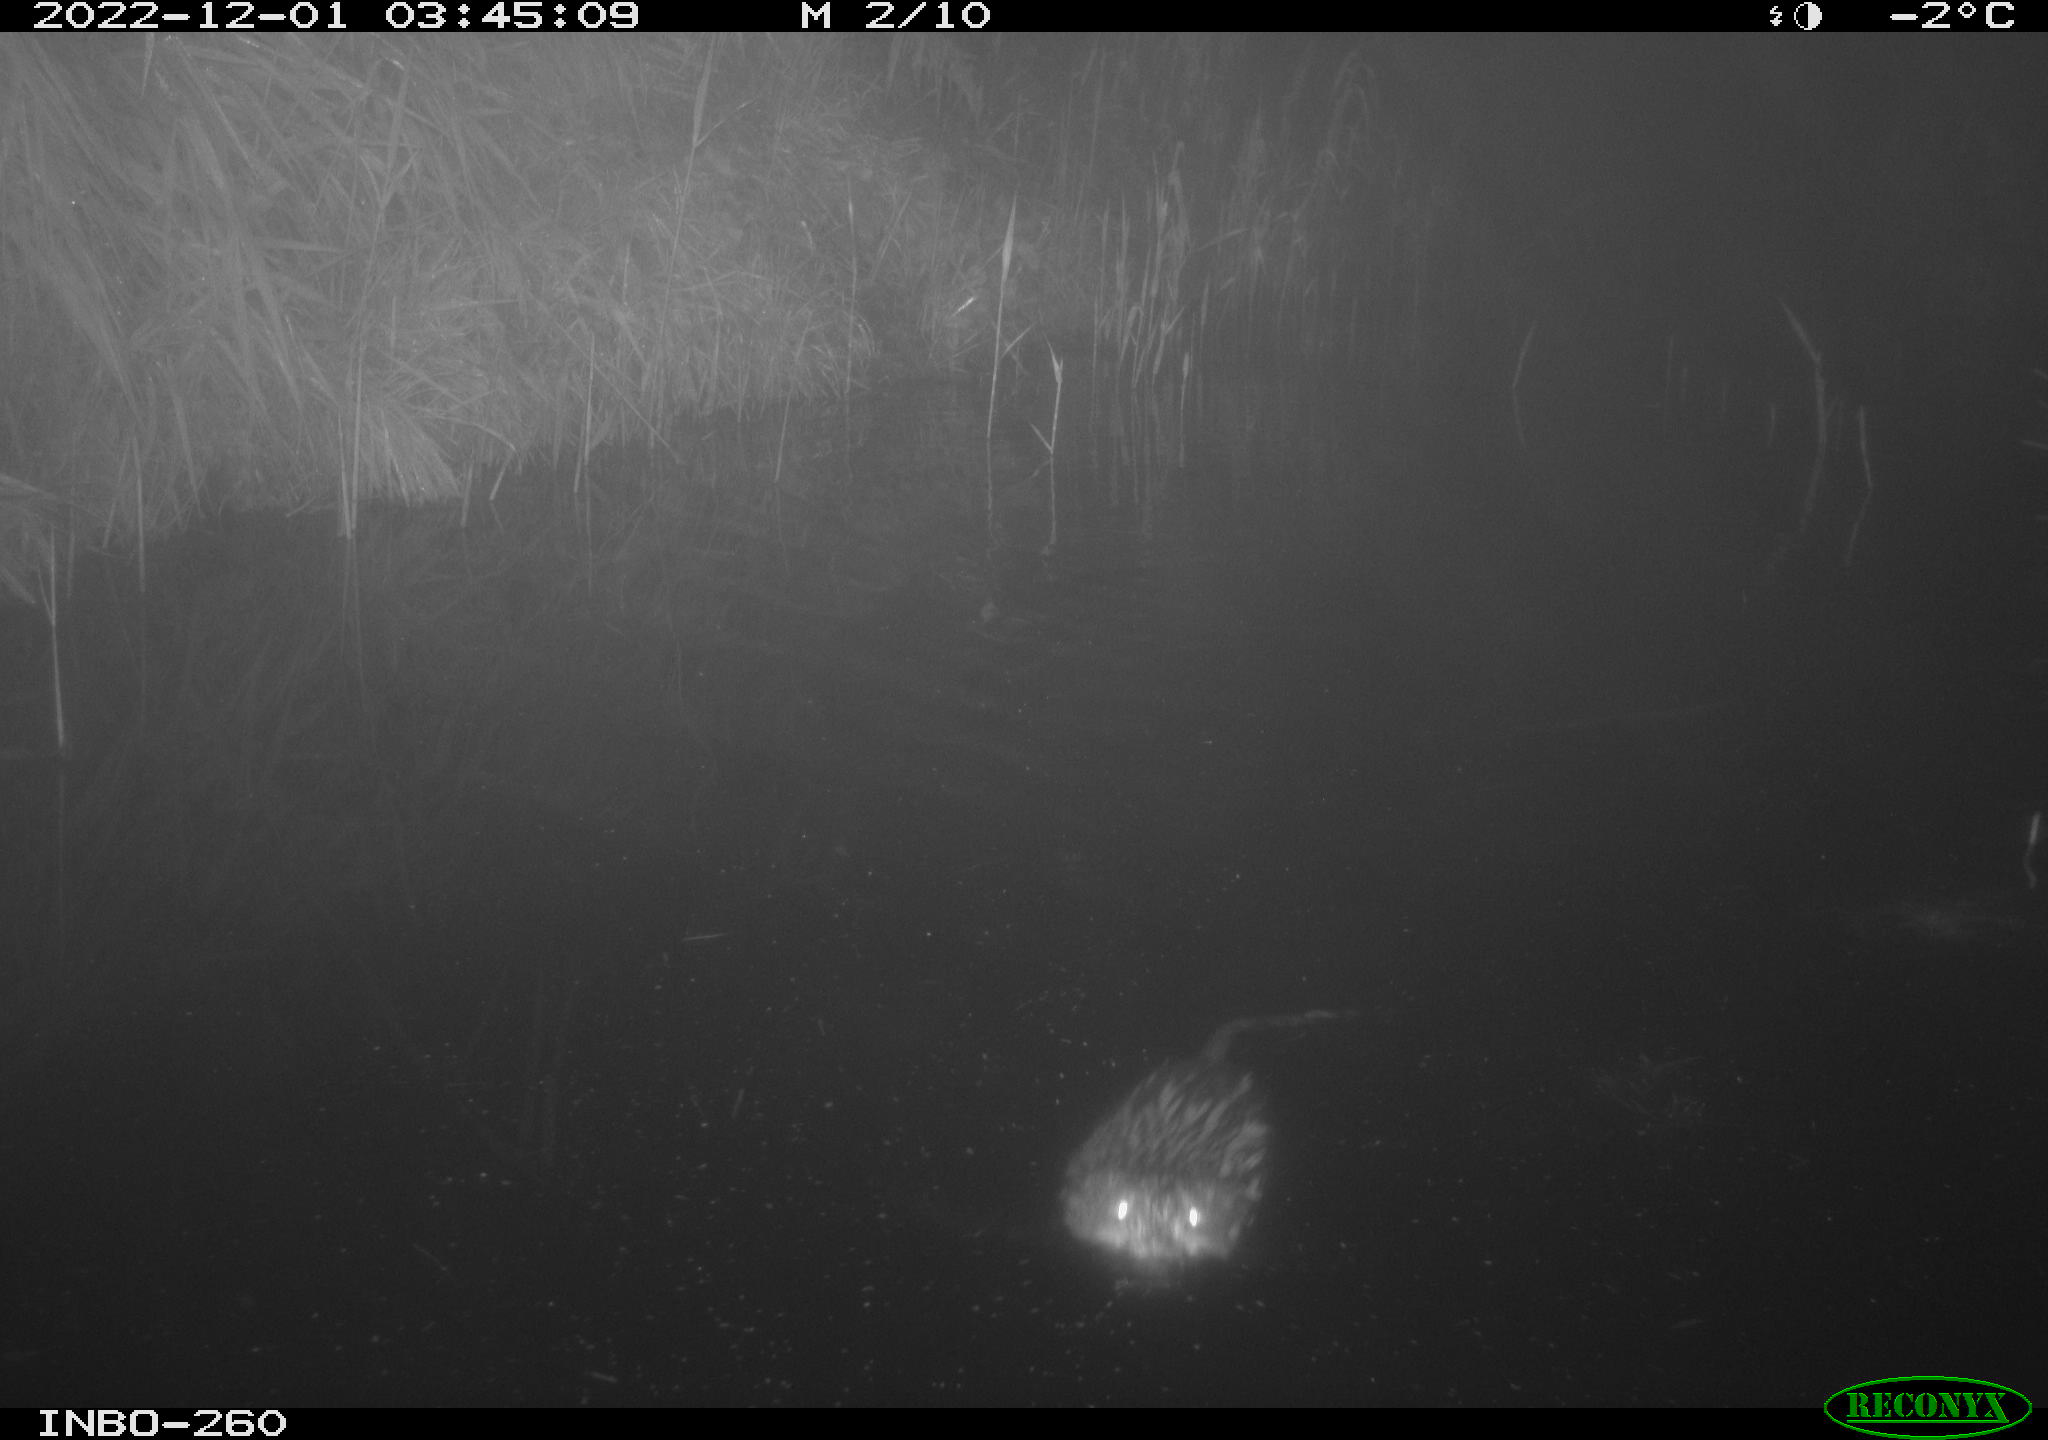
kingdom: Animalia
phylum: Chordata
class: Mammalia
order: Rodentia
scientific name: Rodentia
